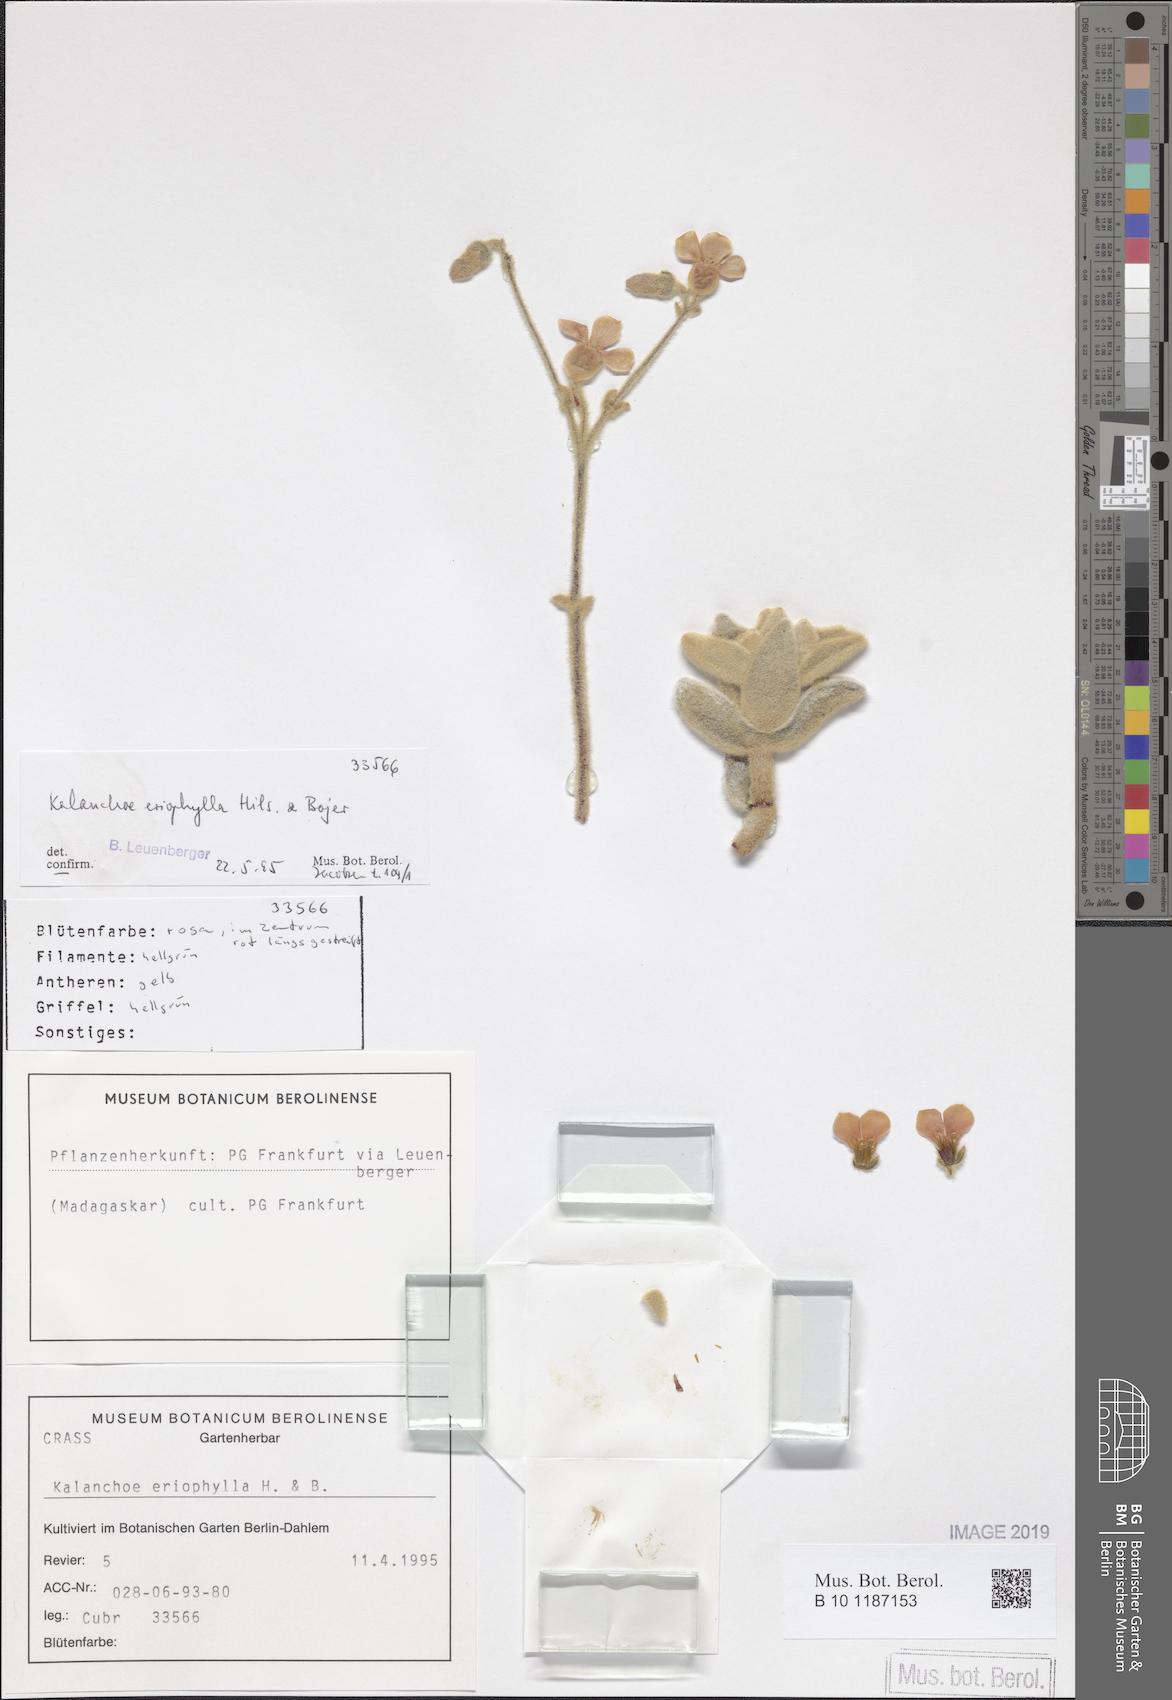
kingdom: Plantae
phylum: Tracheophyta
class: Magnoliopsida
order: Saxifragales
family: Crassulaceae
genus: Kalanchoe
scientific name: Kalanchoe eriophylla
